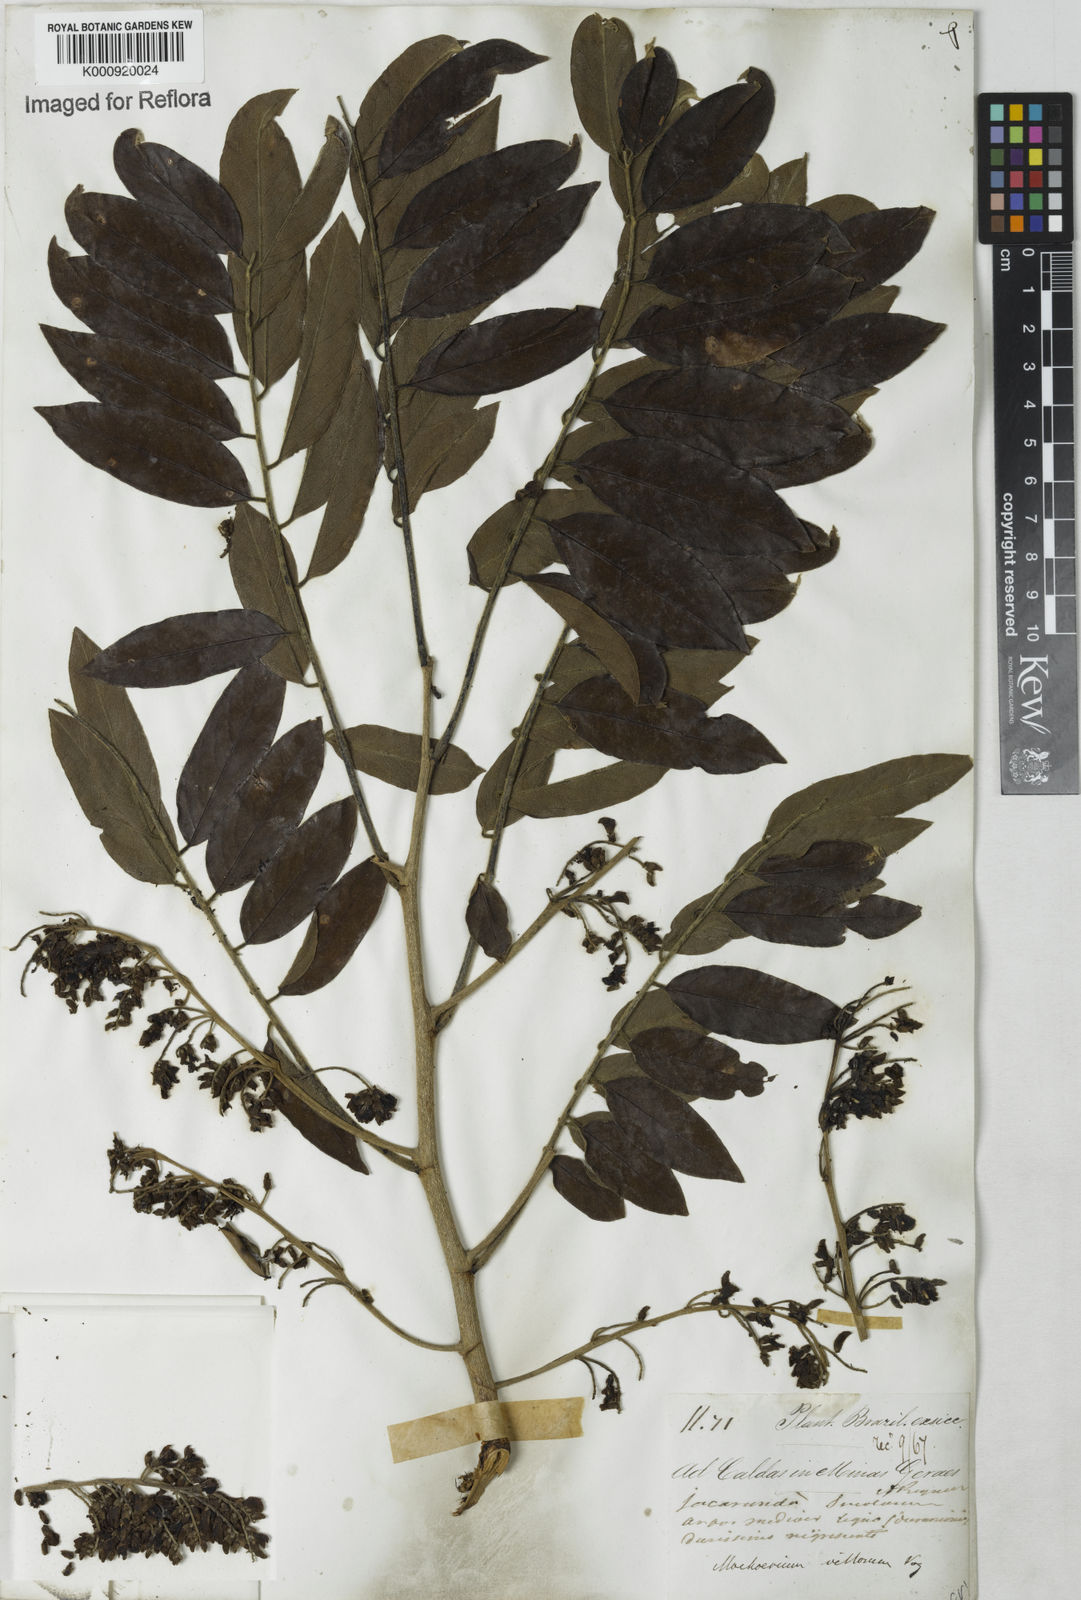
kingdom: Plantae
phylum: Tracheophyta
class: Magnoliopsida
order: Fabales
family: Fabaceae
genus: Machaerium
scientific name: Machaerium villosum
